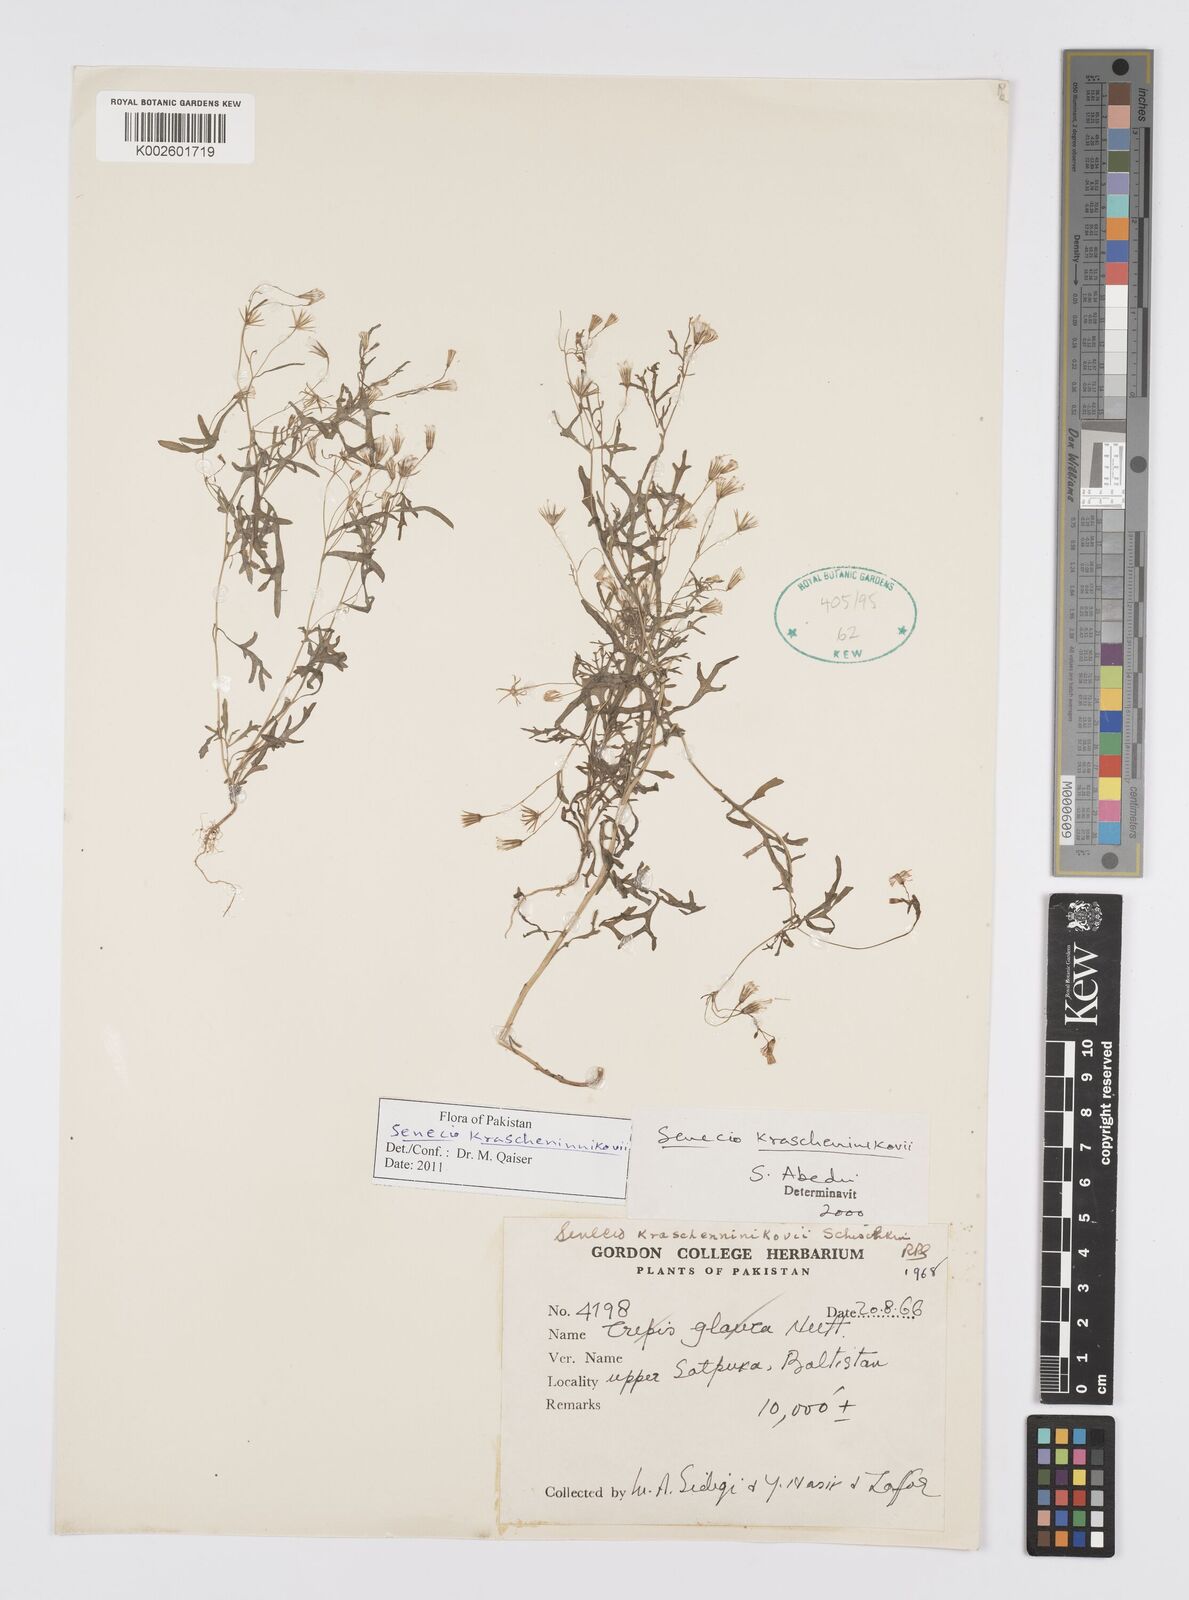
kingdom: Plantae
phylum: Tracheophyta
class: Magnoliopsida
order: Asterales
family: Asteraceae
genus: Senecio
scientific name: Senecio krascheninnikovii
